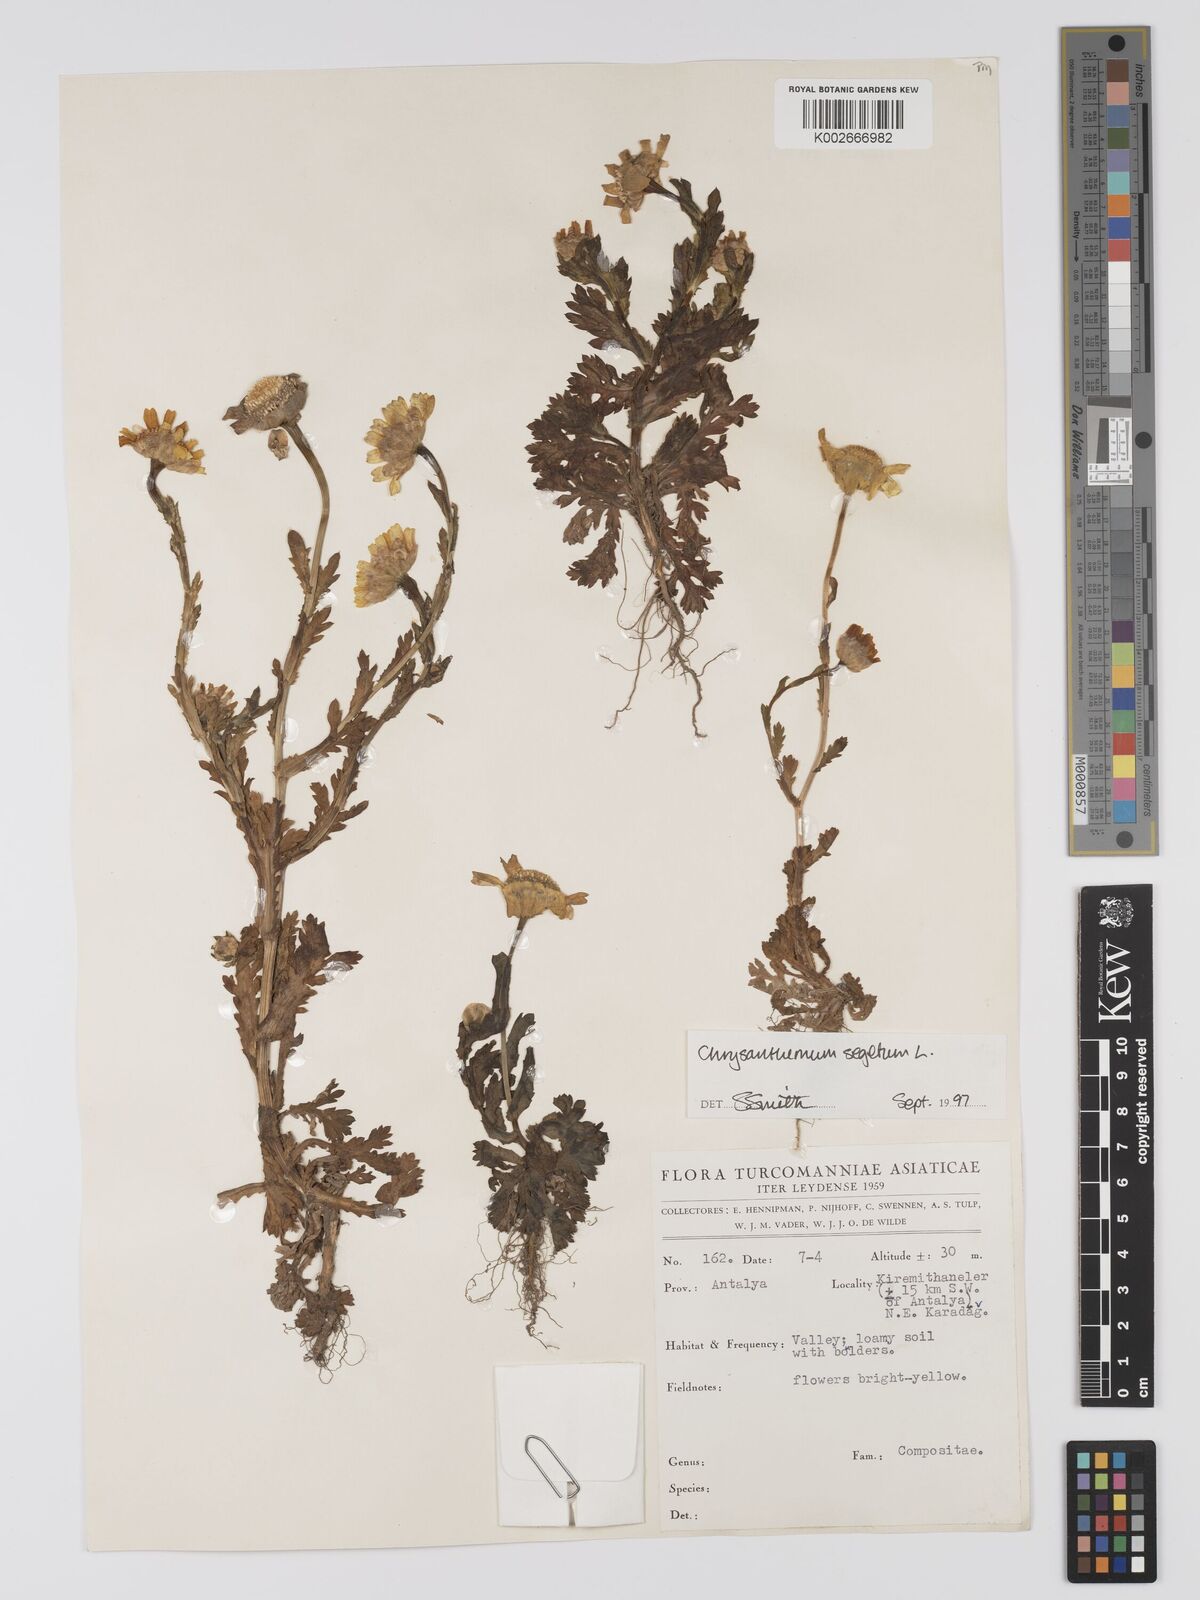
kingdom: Plantae
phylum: Tracheophyta
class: Magnoliopsida
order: Asterales
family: Asteraceae
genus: Glebionis
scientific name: Glebionis segetum
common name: Corndaisy
